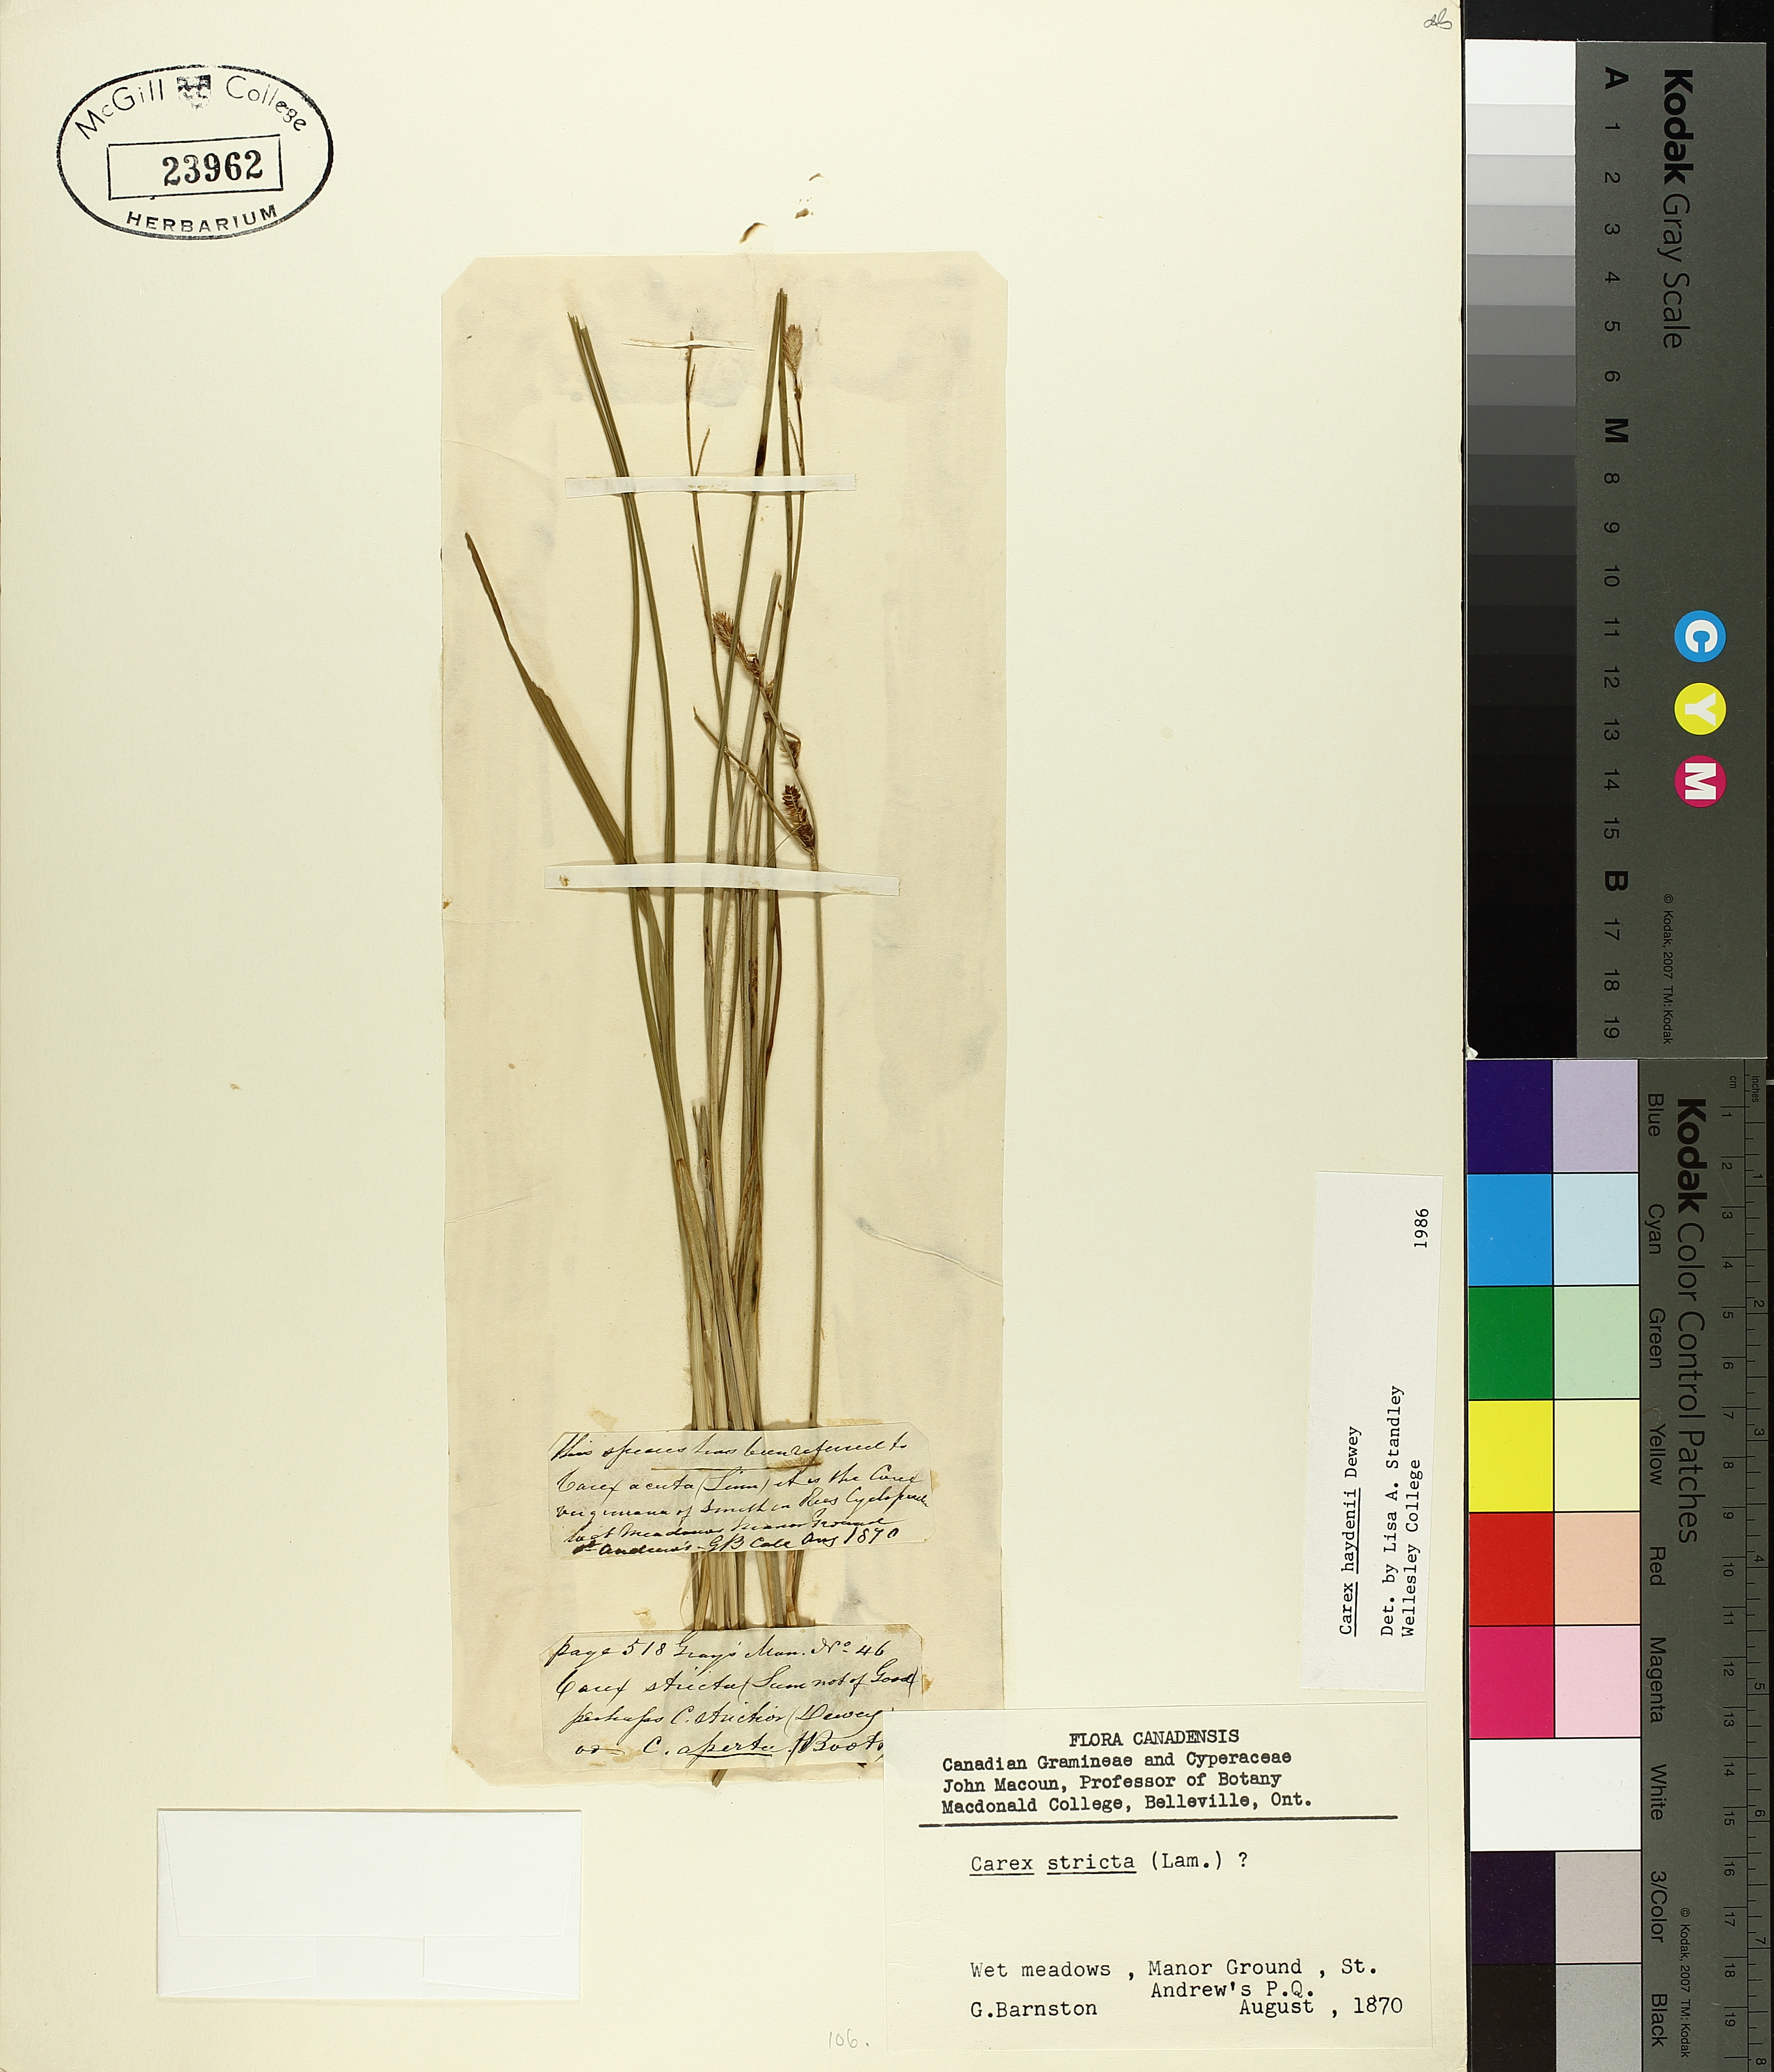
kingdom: Plantae
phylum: Tracheophyta
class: Liliopsida
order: Poales
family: Cyperaceae
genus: Carex
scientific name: Carex haydenii
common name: Hayden's sedge
